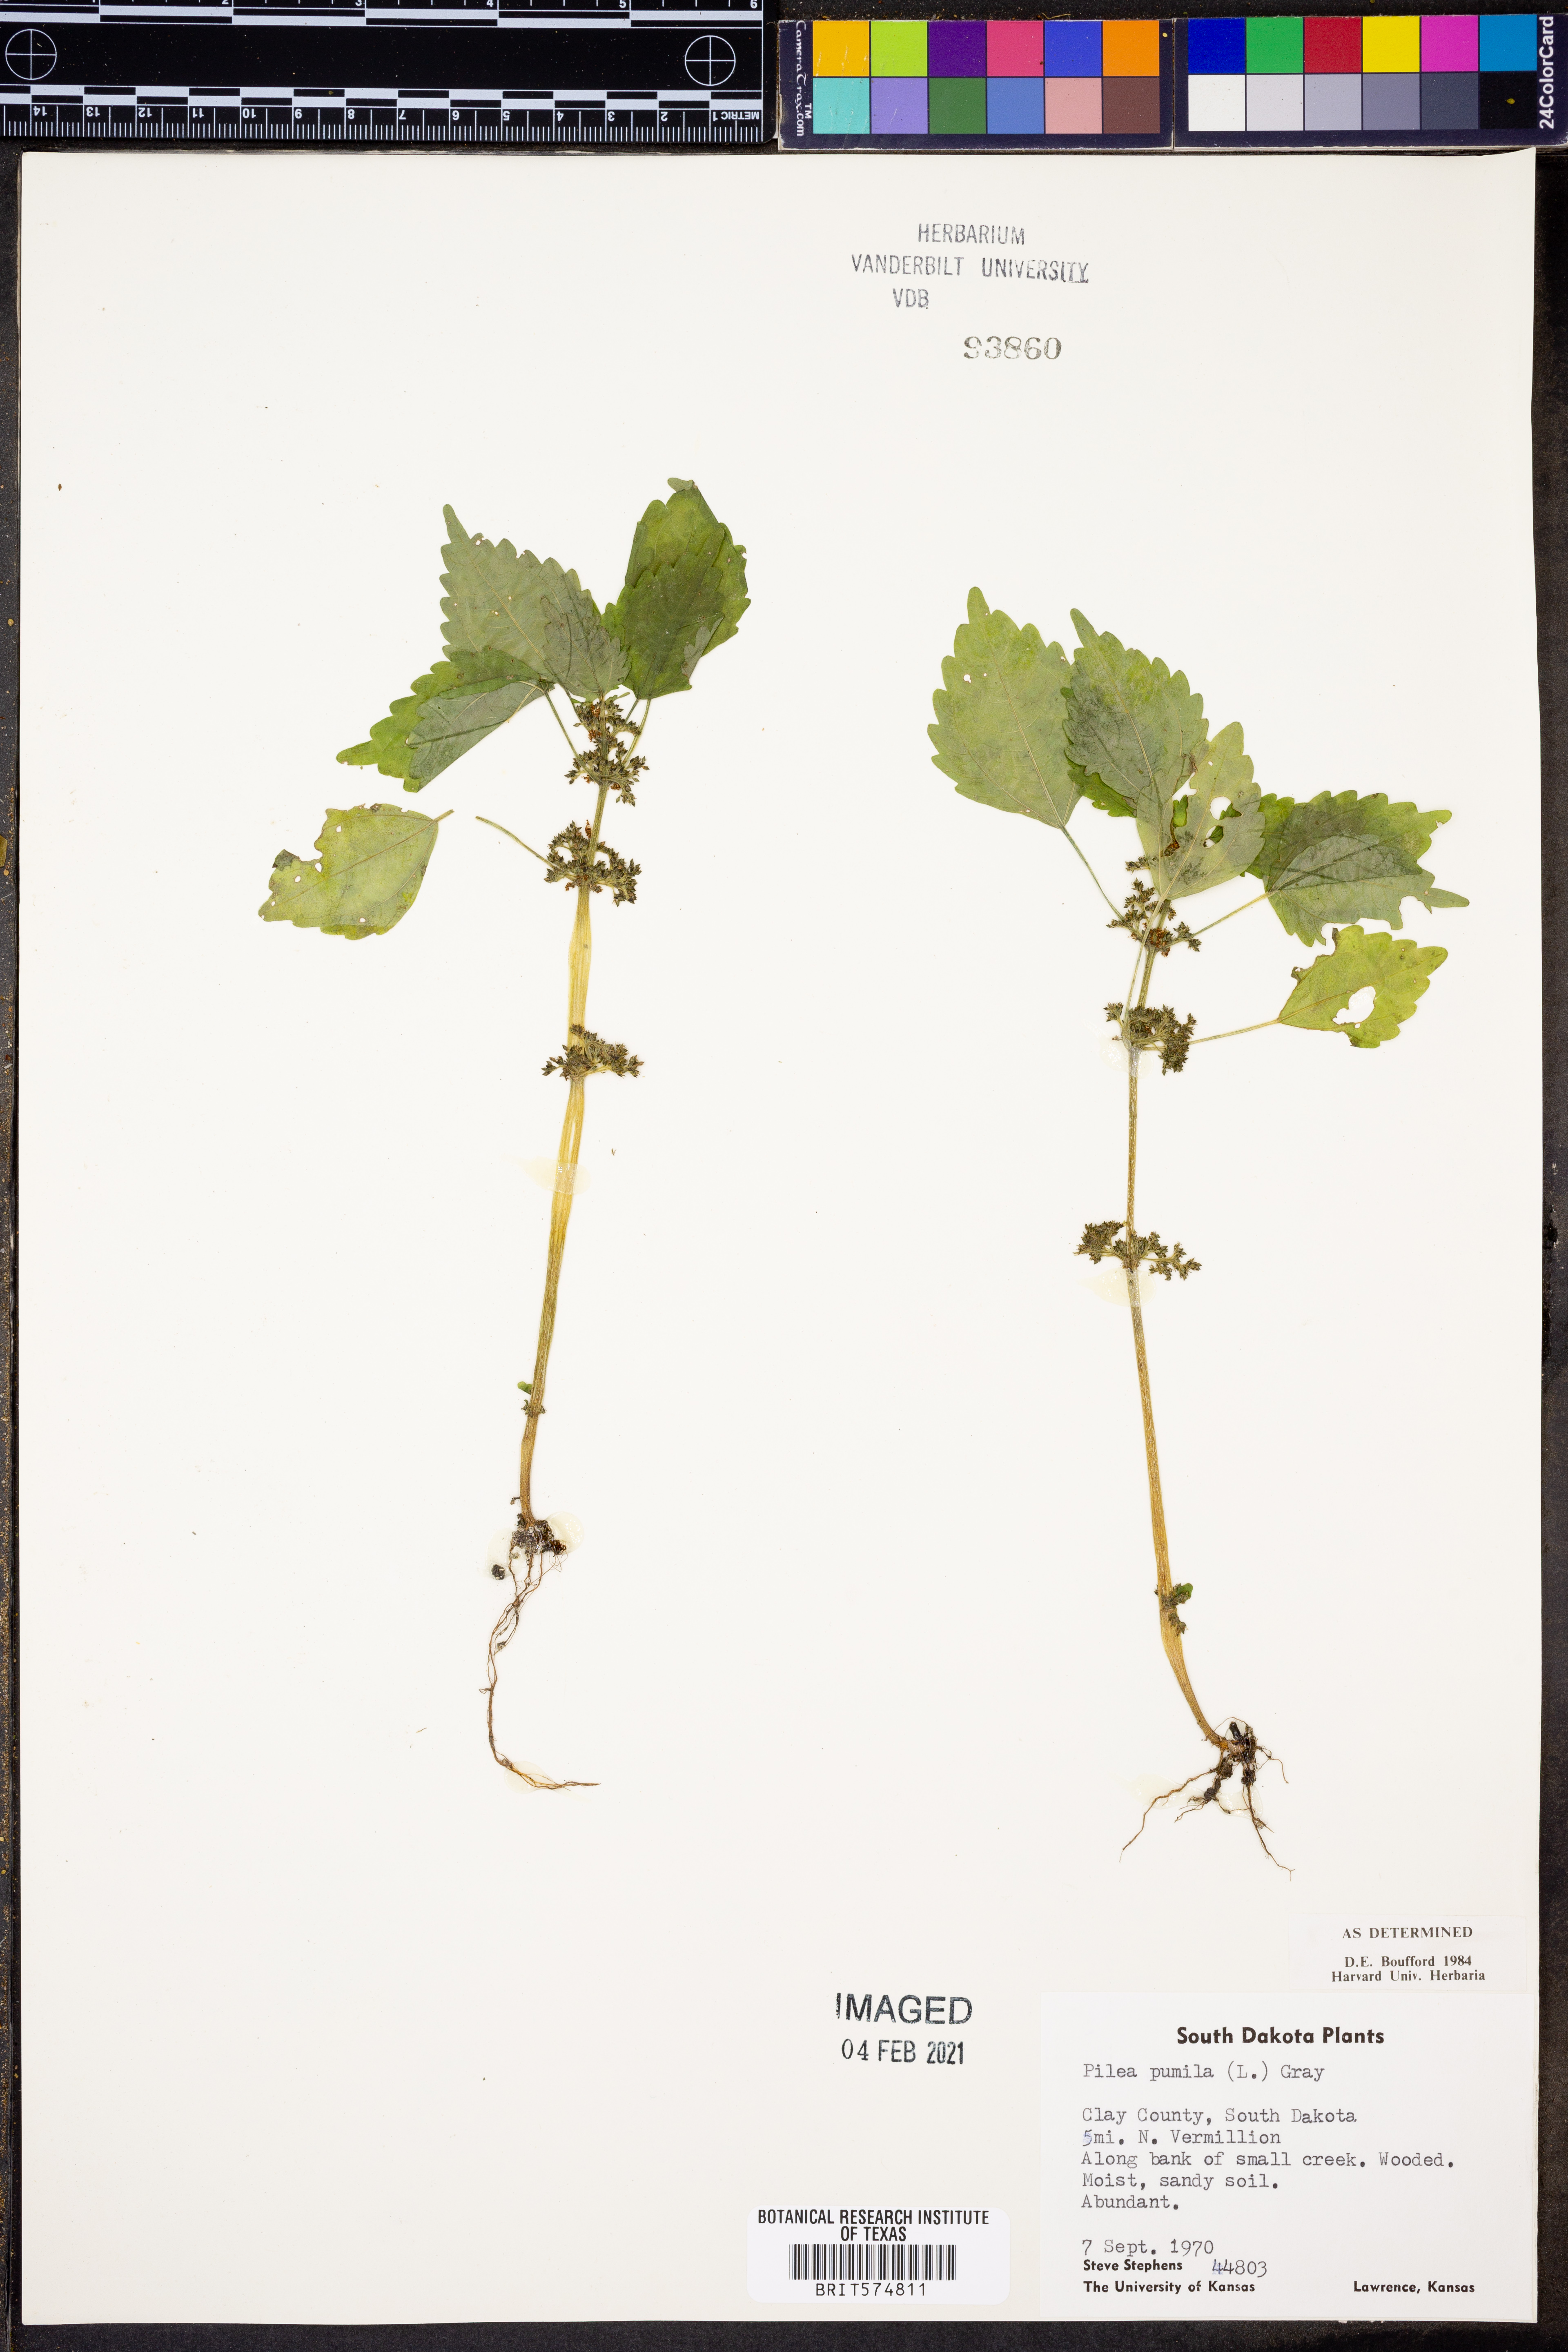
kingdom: Plantae
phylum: Tracheophyta
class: Magnoliopsida
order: Rosales
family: Urticaceae
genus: Pilea
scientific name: Pilea pumila
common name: Clearweed
